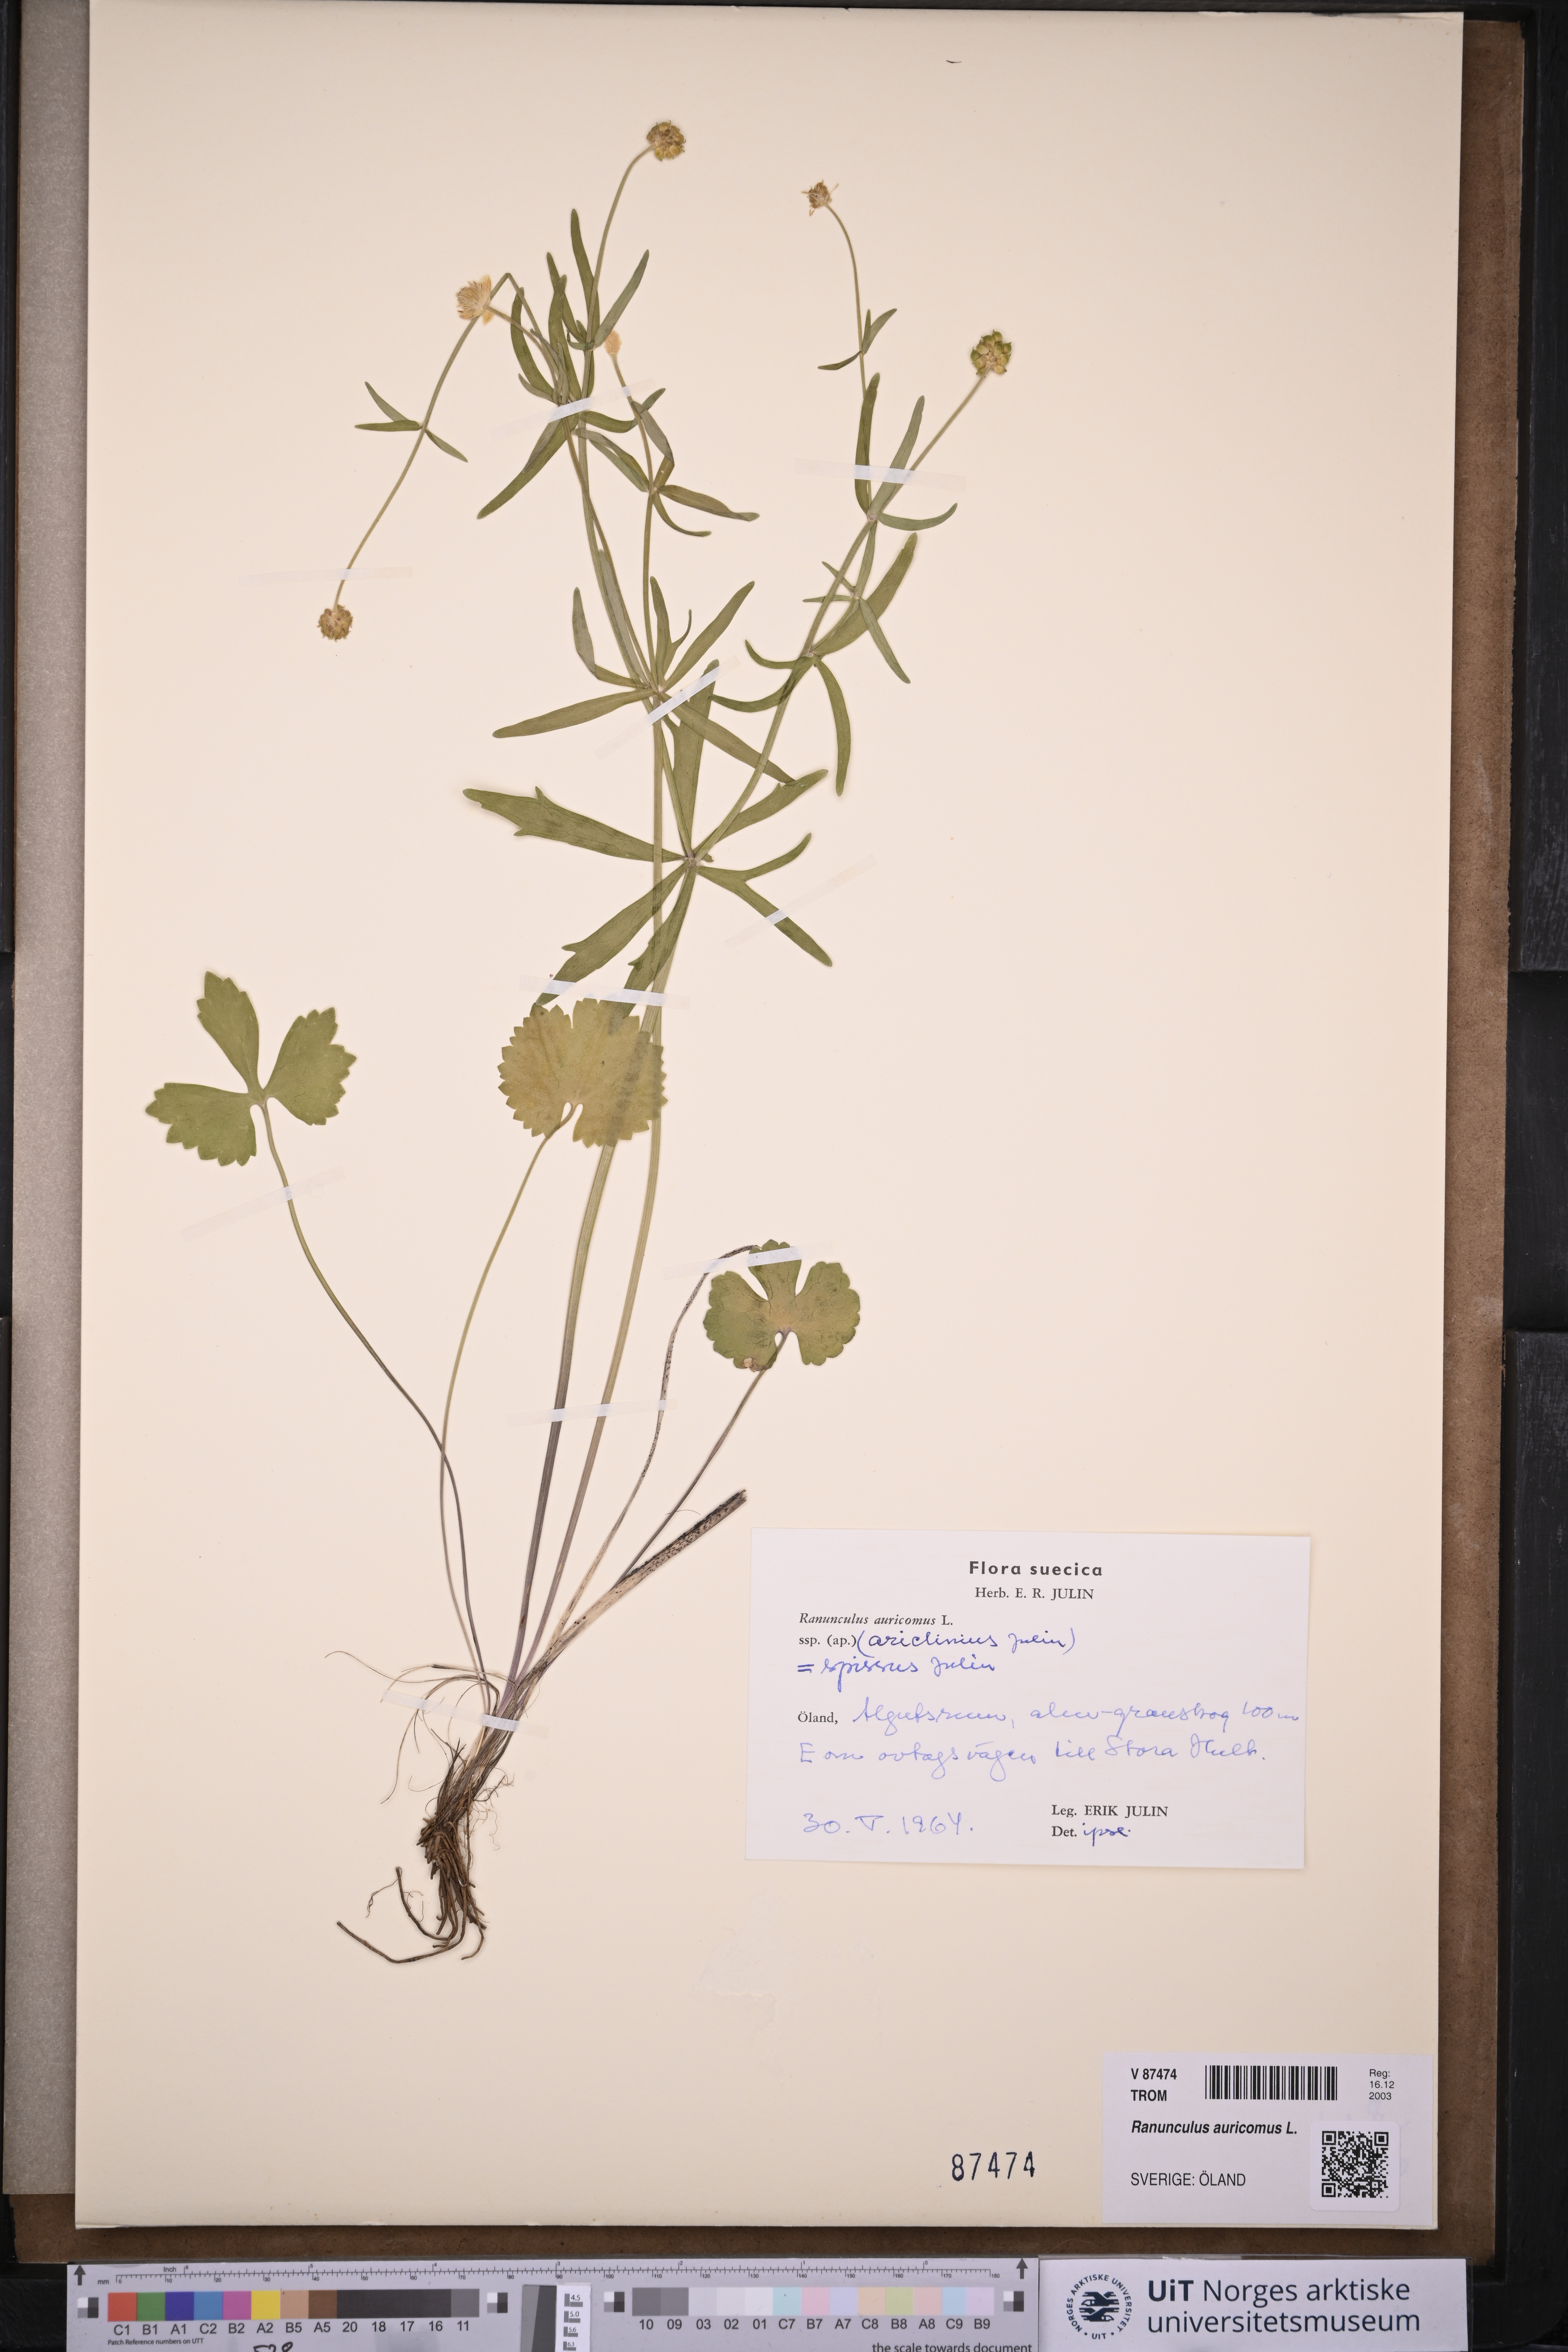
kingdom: Plantae
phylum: Tracheophyta
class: Magnoliopsida
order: Ranunculales
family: Ranunculaceae
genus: Ranunculus
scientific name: Ranunculus auricomus
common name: Goldilocks buttercup
